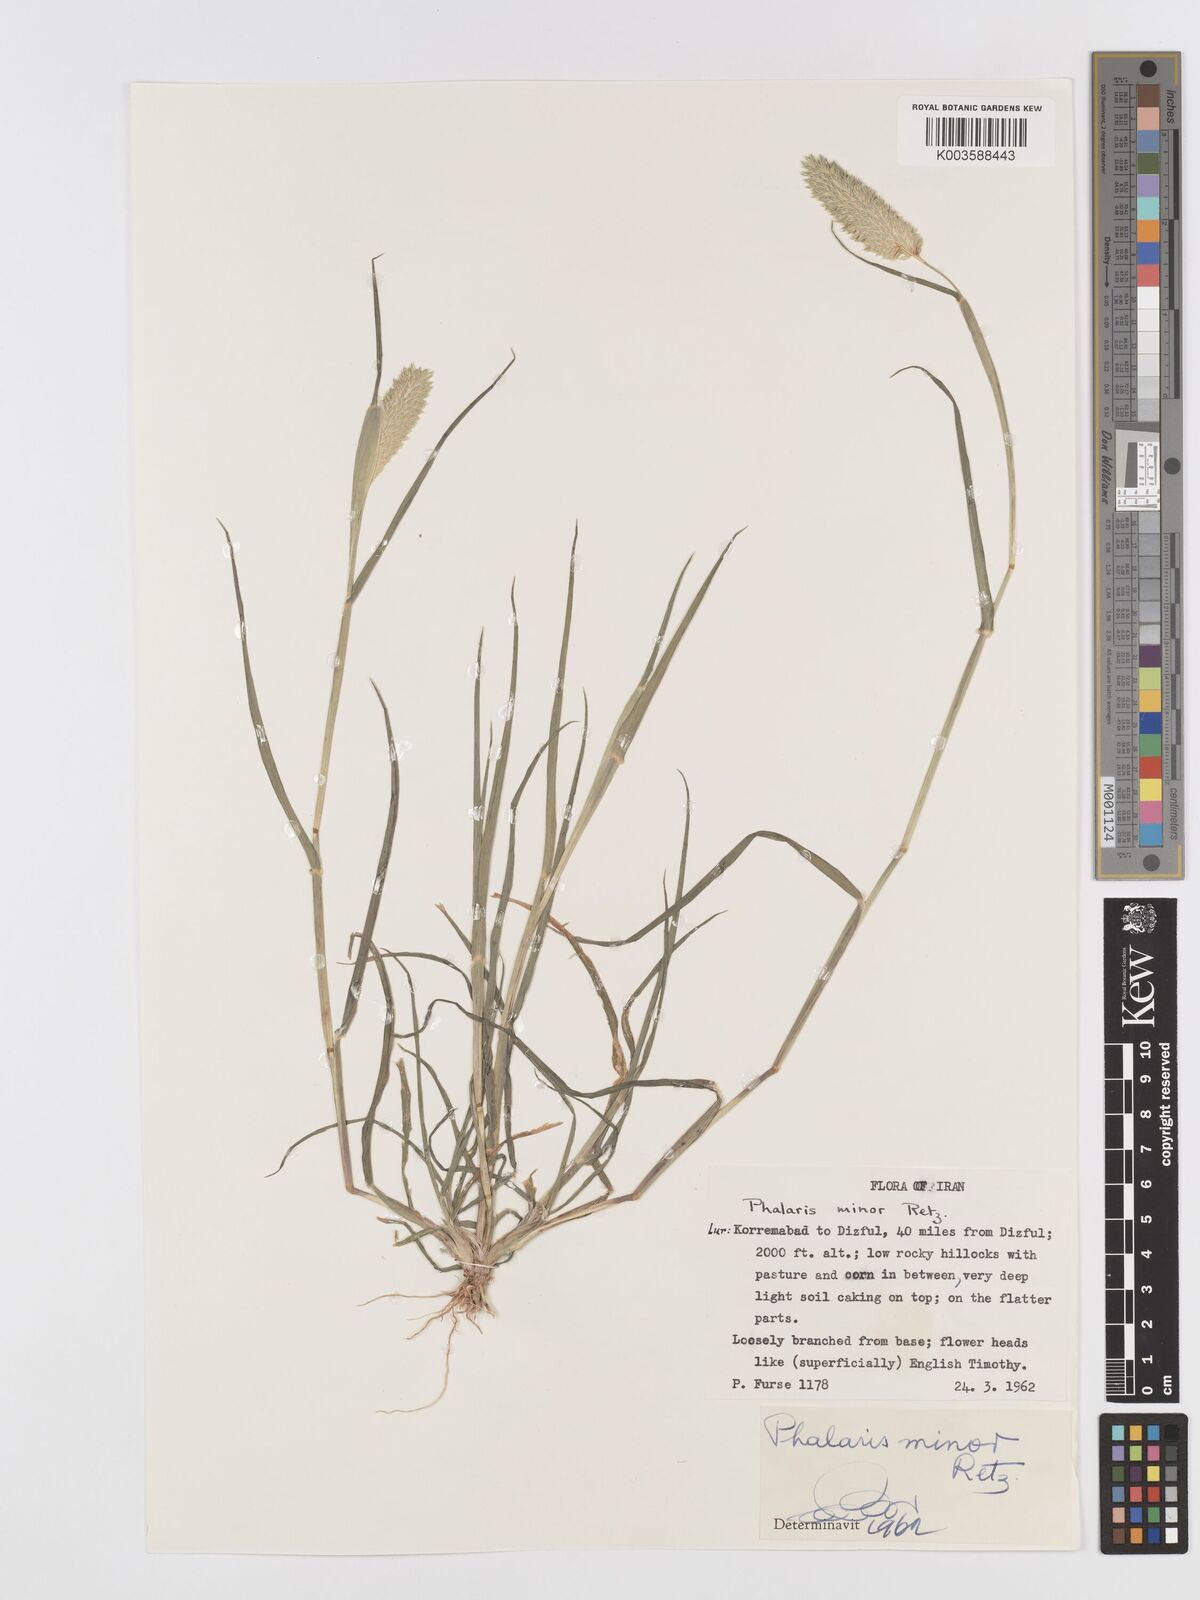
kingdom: Plantae
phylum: Tracheophyta
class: Liliopsida
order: Poales
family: Poaceae
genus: Phalaris
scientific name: Phalaris minor
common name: Littleseed canarygrass
